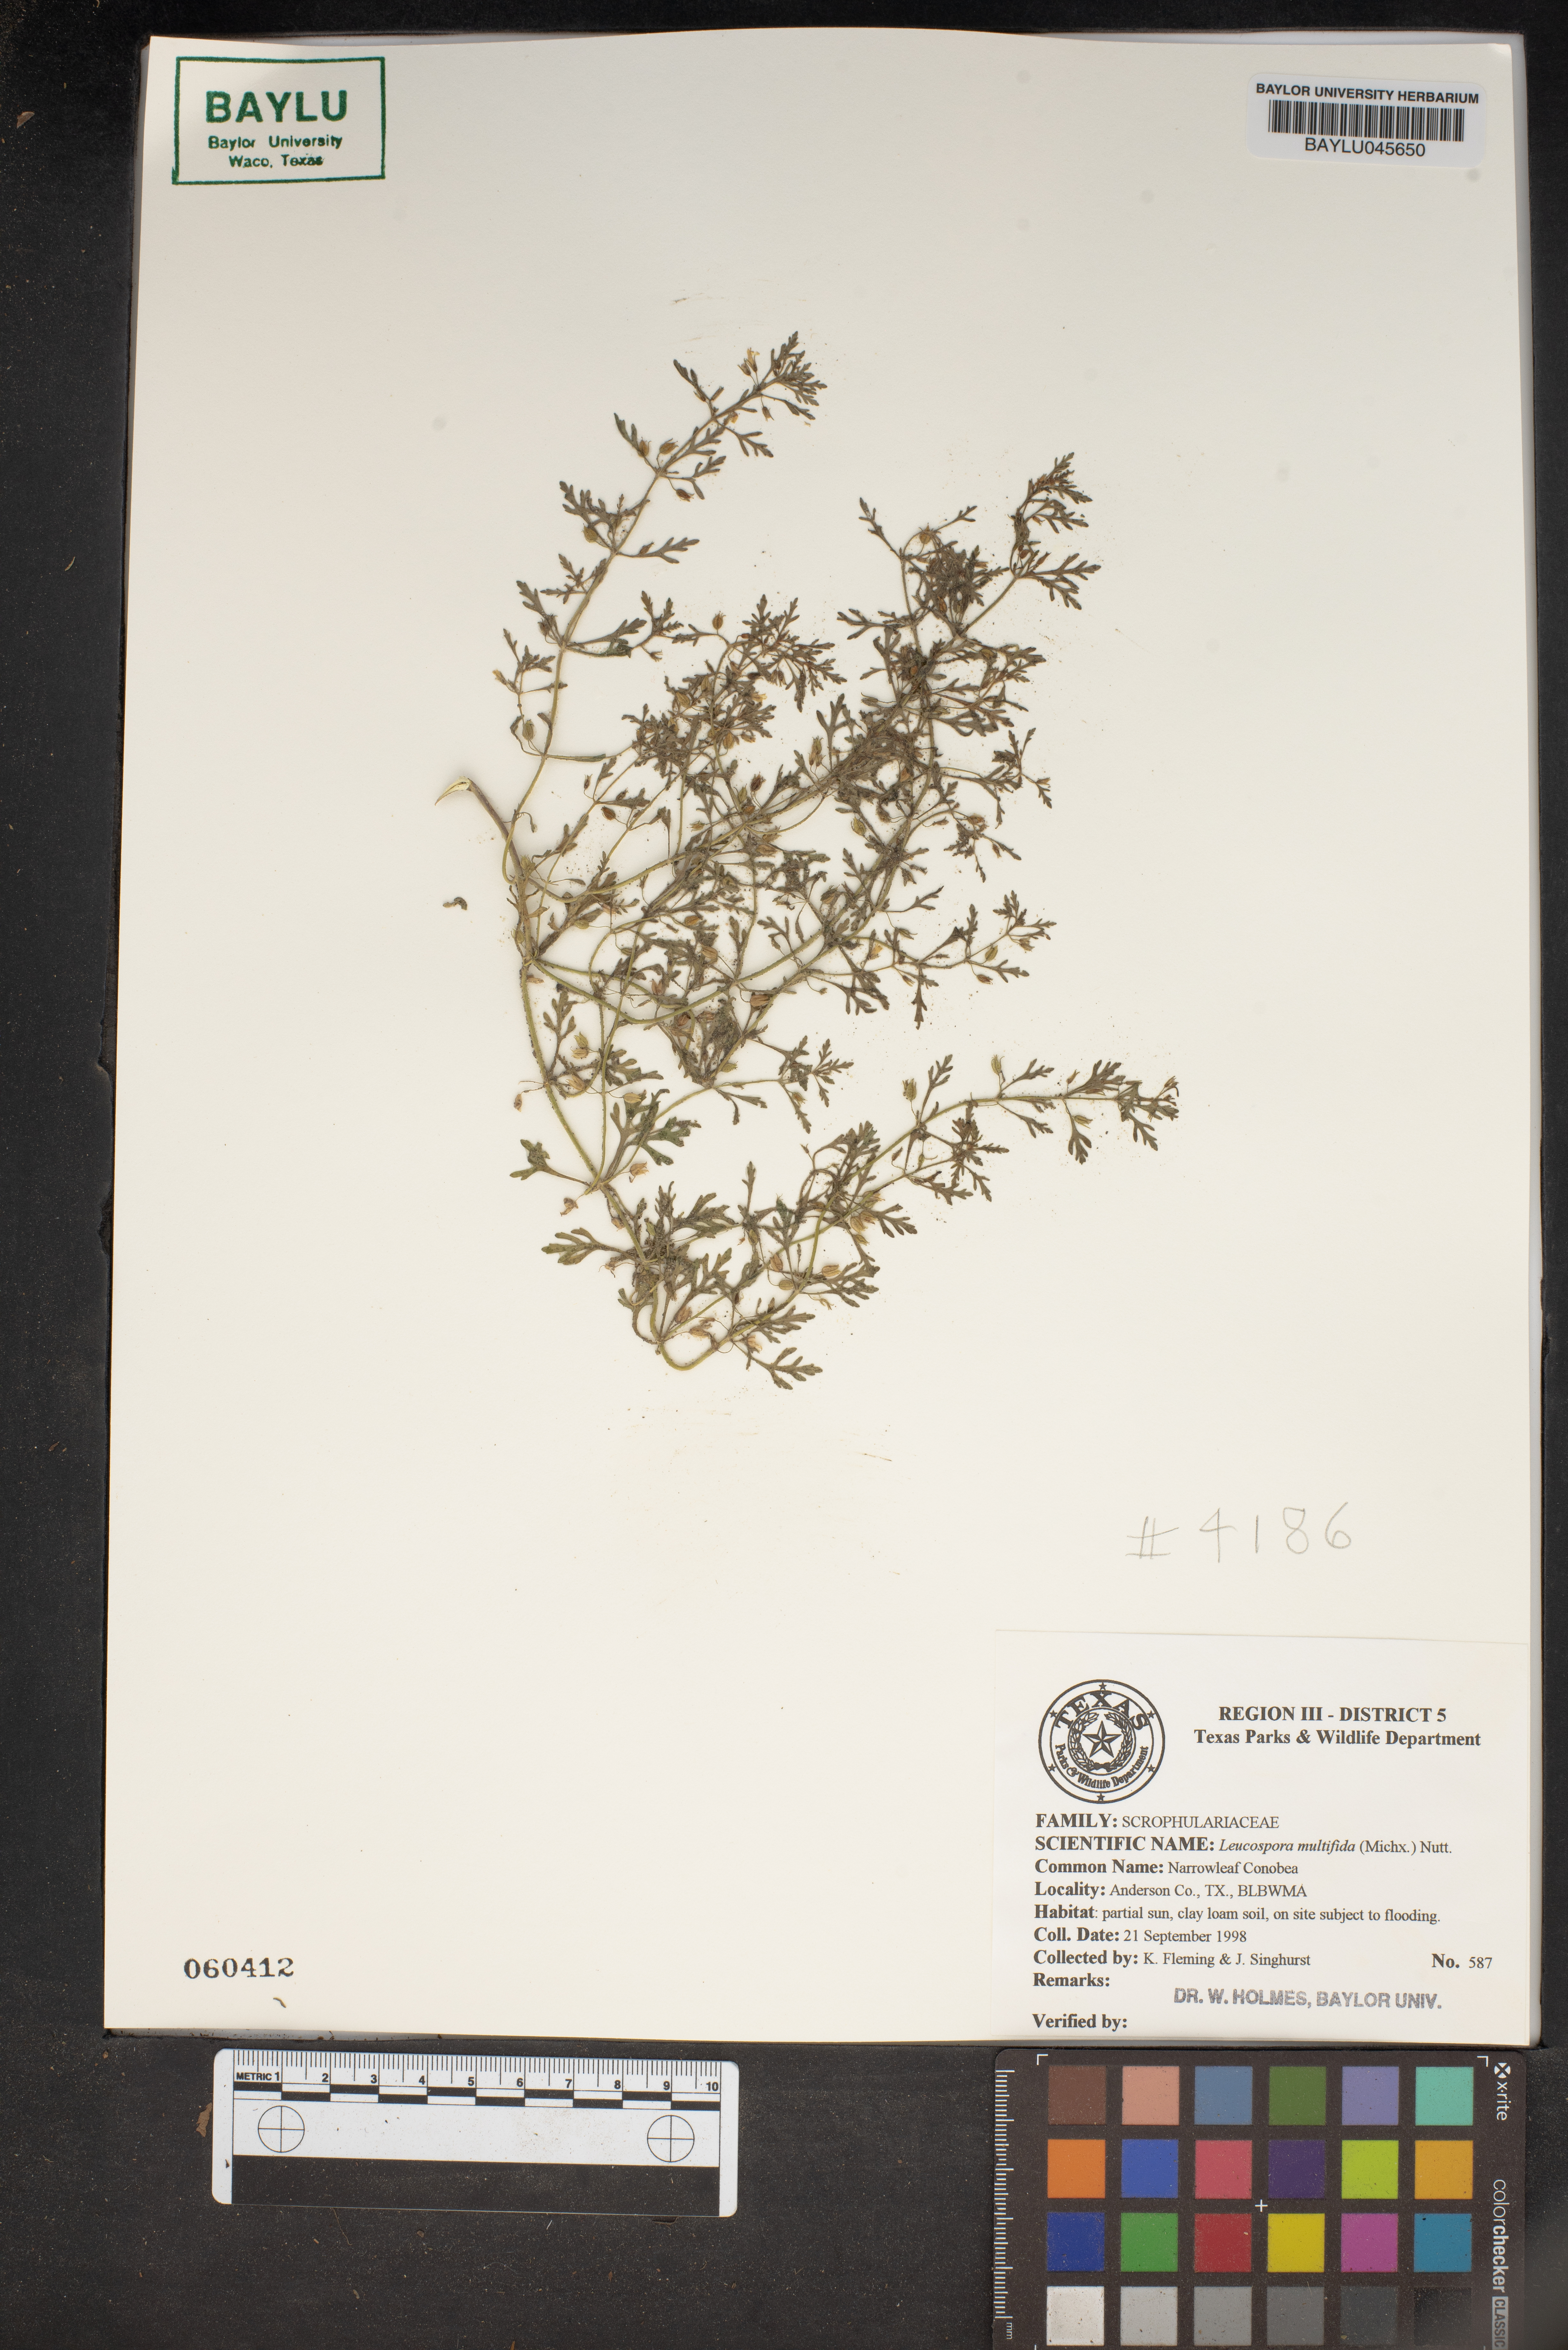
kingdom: Plantae
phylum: Tracheophyta
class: Magnoliopsida
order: Lamiales
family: Plantaginaceae
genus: Leucospora
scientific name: Leucospora multifida
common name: Narrow-leaf paleseed
